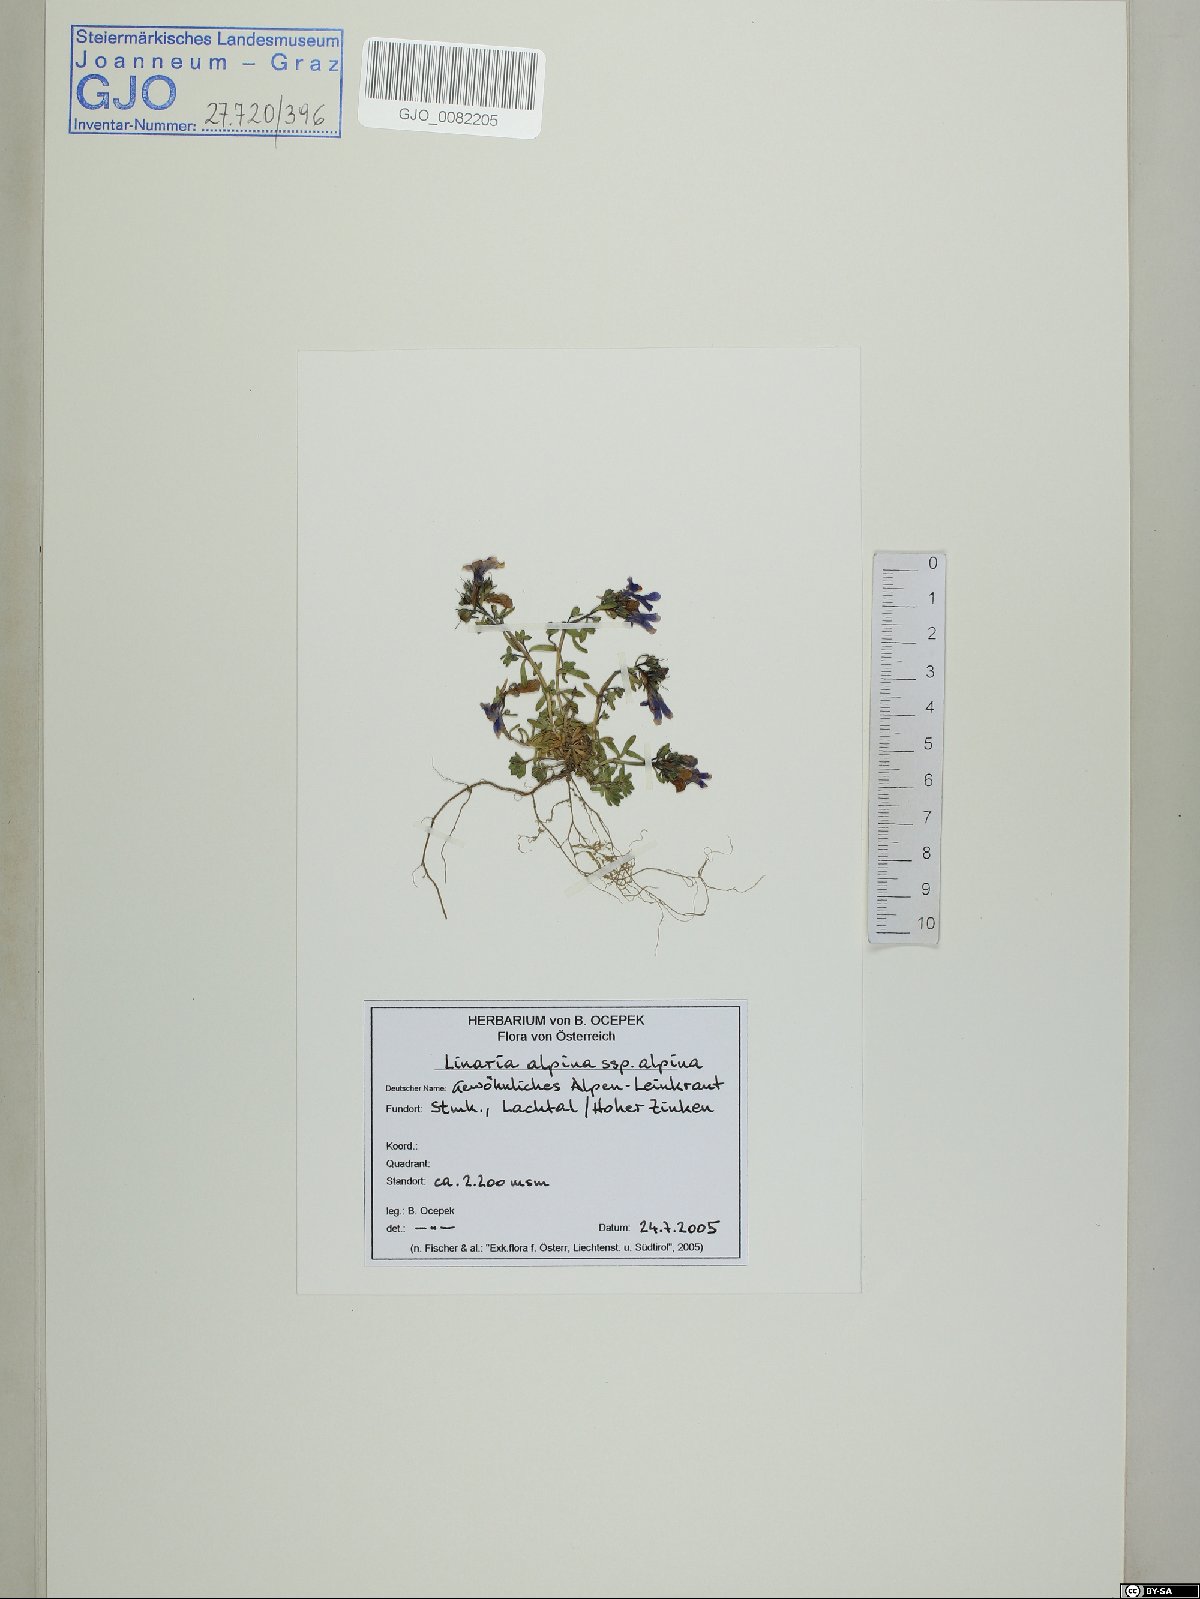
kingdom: Plantae
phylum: Tracheophyta
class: Magnoliopsida
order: Lamiales
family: Plantaginaceae
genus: Linaria
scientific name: Linaria alpina
